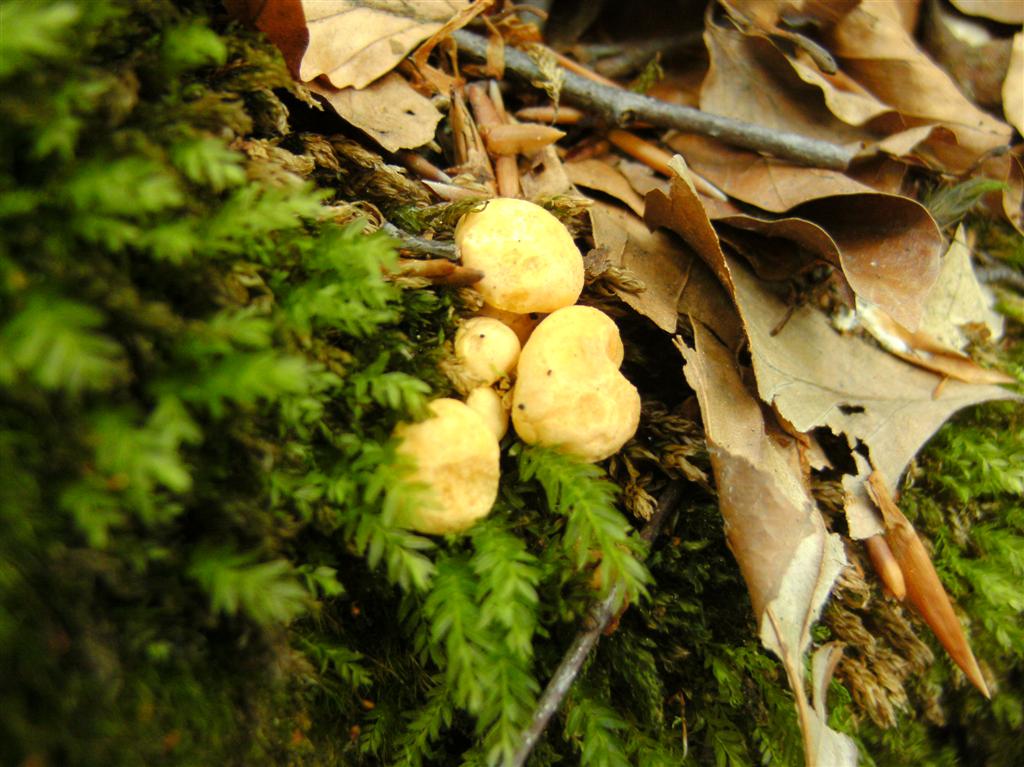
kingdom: Fungi
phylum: Basidiomycota
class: Agaricomycetes
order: Cantharellales
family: Hydnaceae
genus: Cantharellus
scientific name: Cantharellus pallens
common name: bleg kantarel
